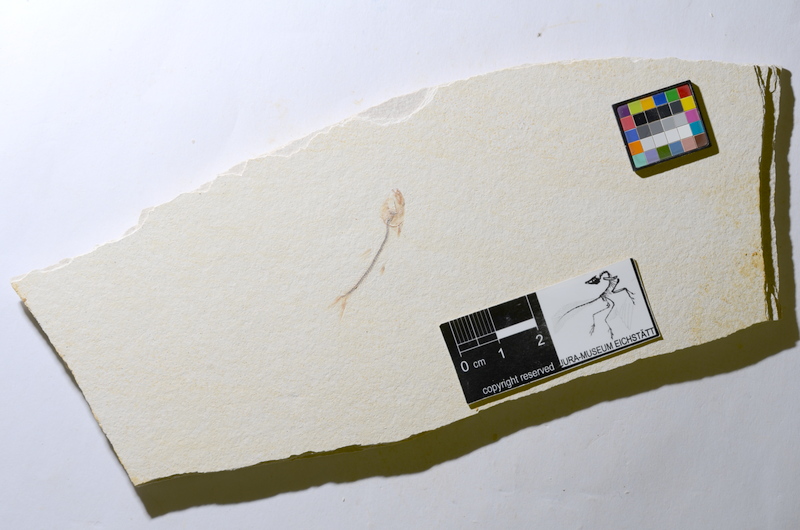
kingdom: Animalia
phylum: Chordata
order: Salmoniformes
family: Orthogonikleithridae
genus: Orthogonikleithrus
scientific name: Orthogonikleithrus hoelli
